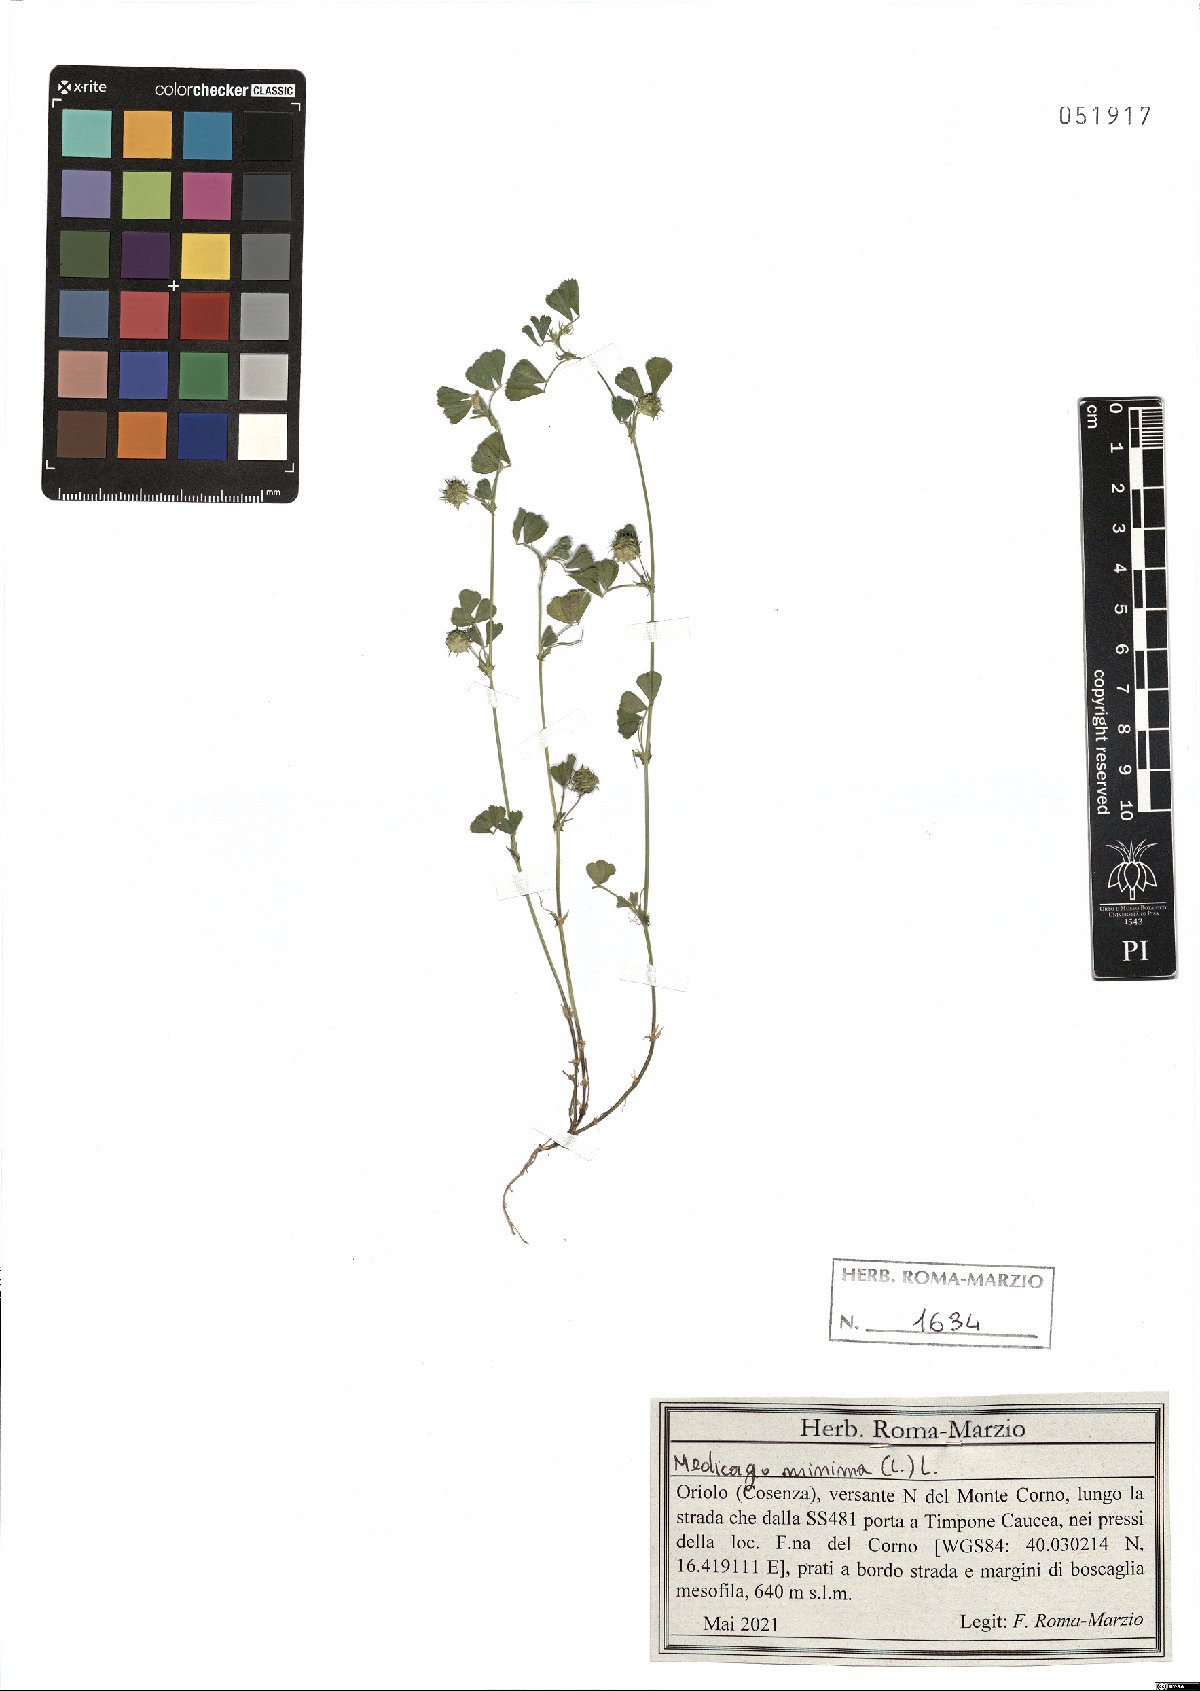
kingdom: Plantae
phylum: Tracheophyta
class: Magnoliopsida
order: Fabales
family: Fabaceae
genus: Medicago
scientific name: Medicago minima
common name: Little bur-clover
